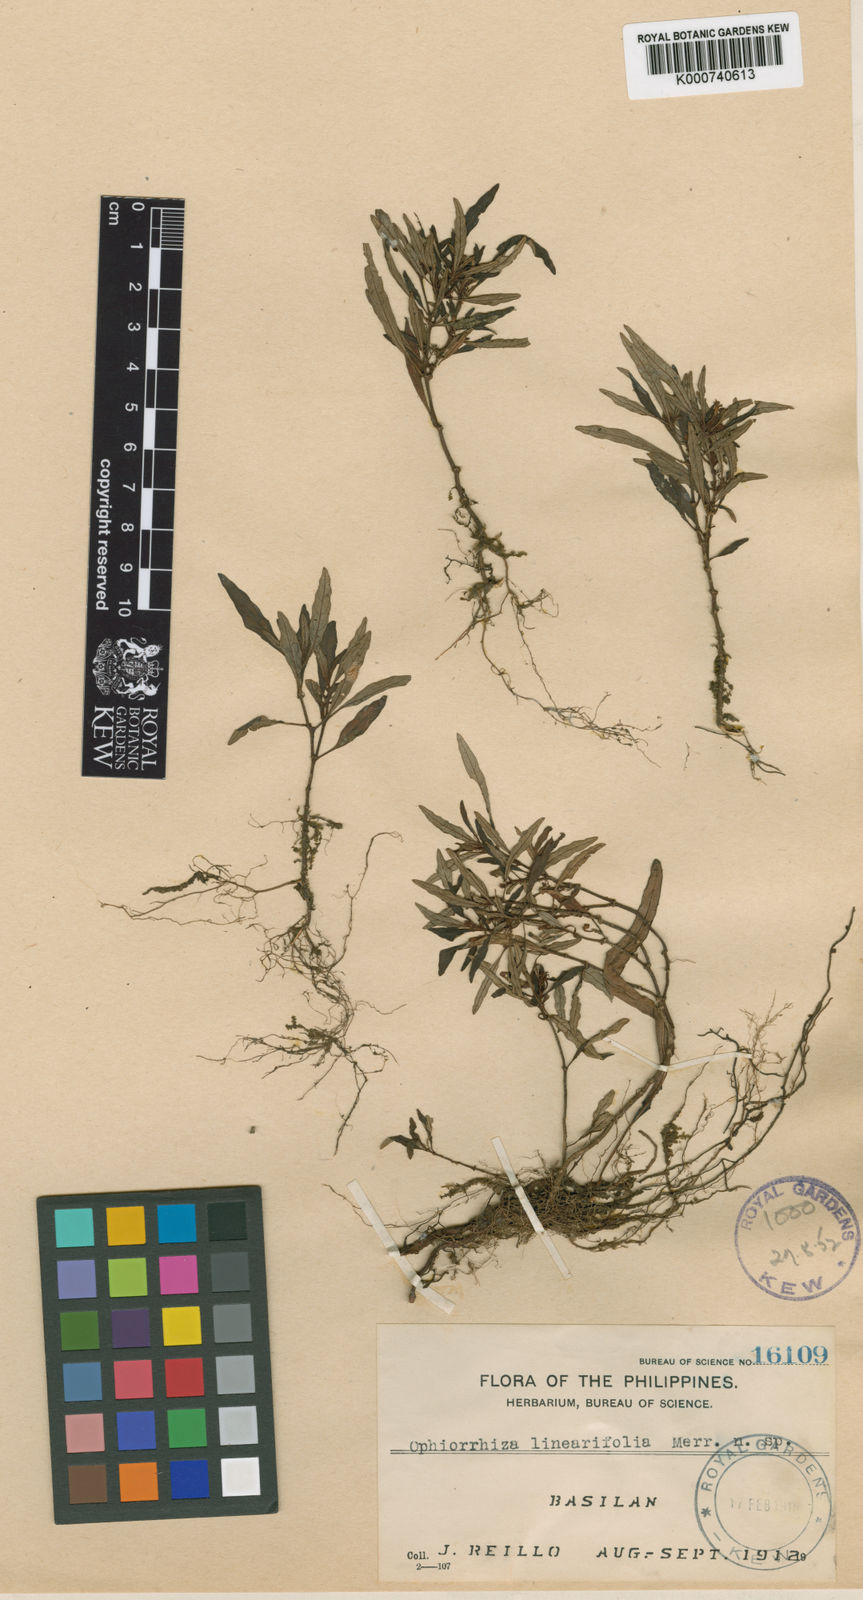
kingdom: Plantae
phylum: Tracheophyta
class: Magnoliopsida
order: Gentianales
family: Rubiaceae
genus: Ophiorrhiza
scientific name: Ophiorrhiza linearifolia
